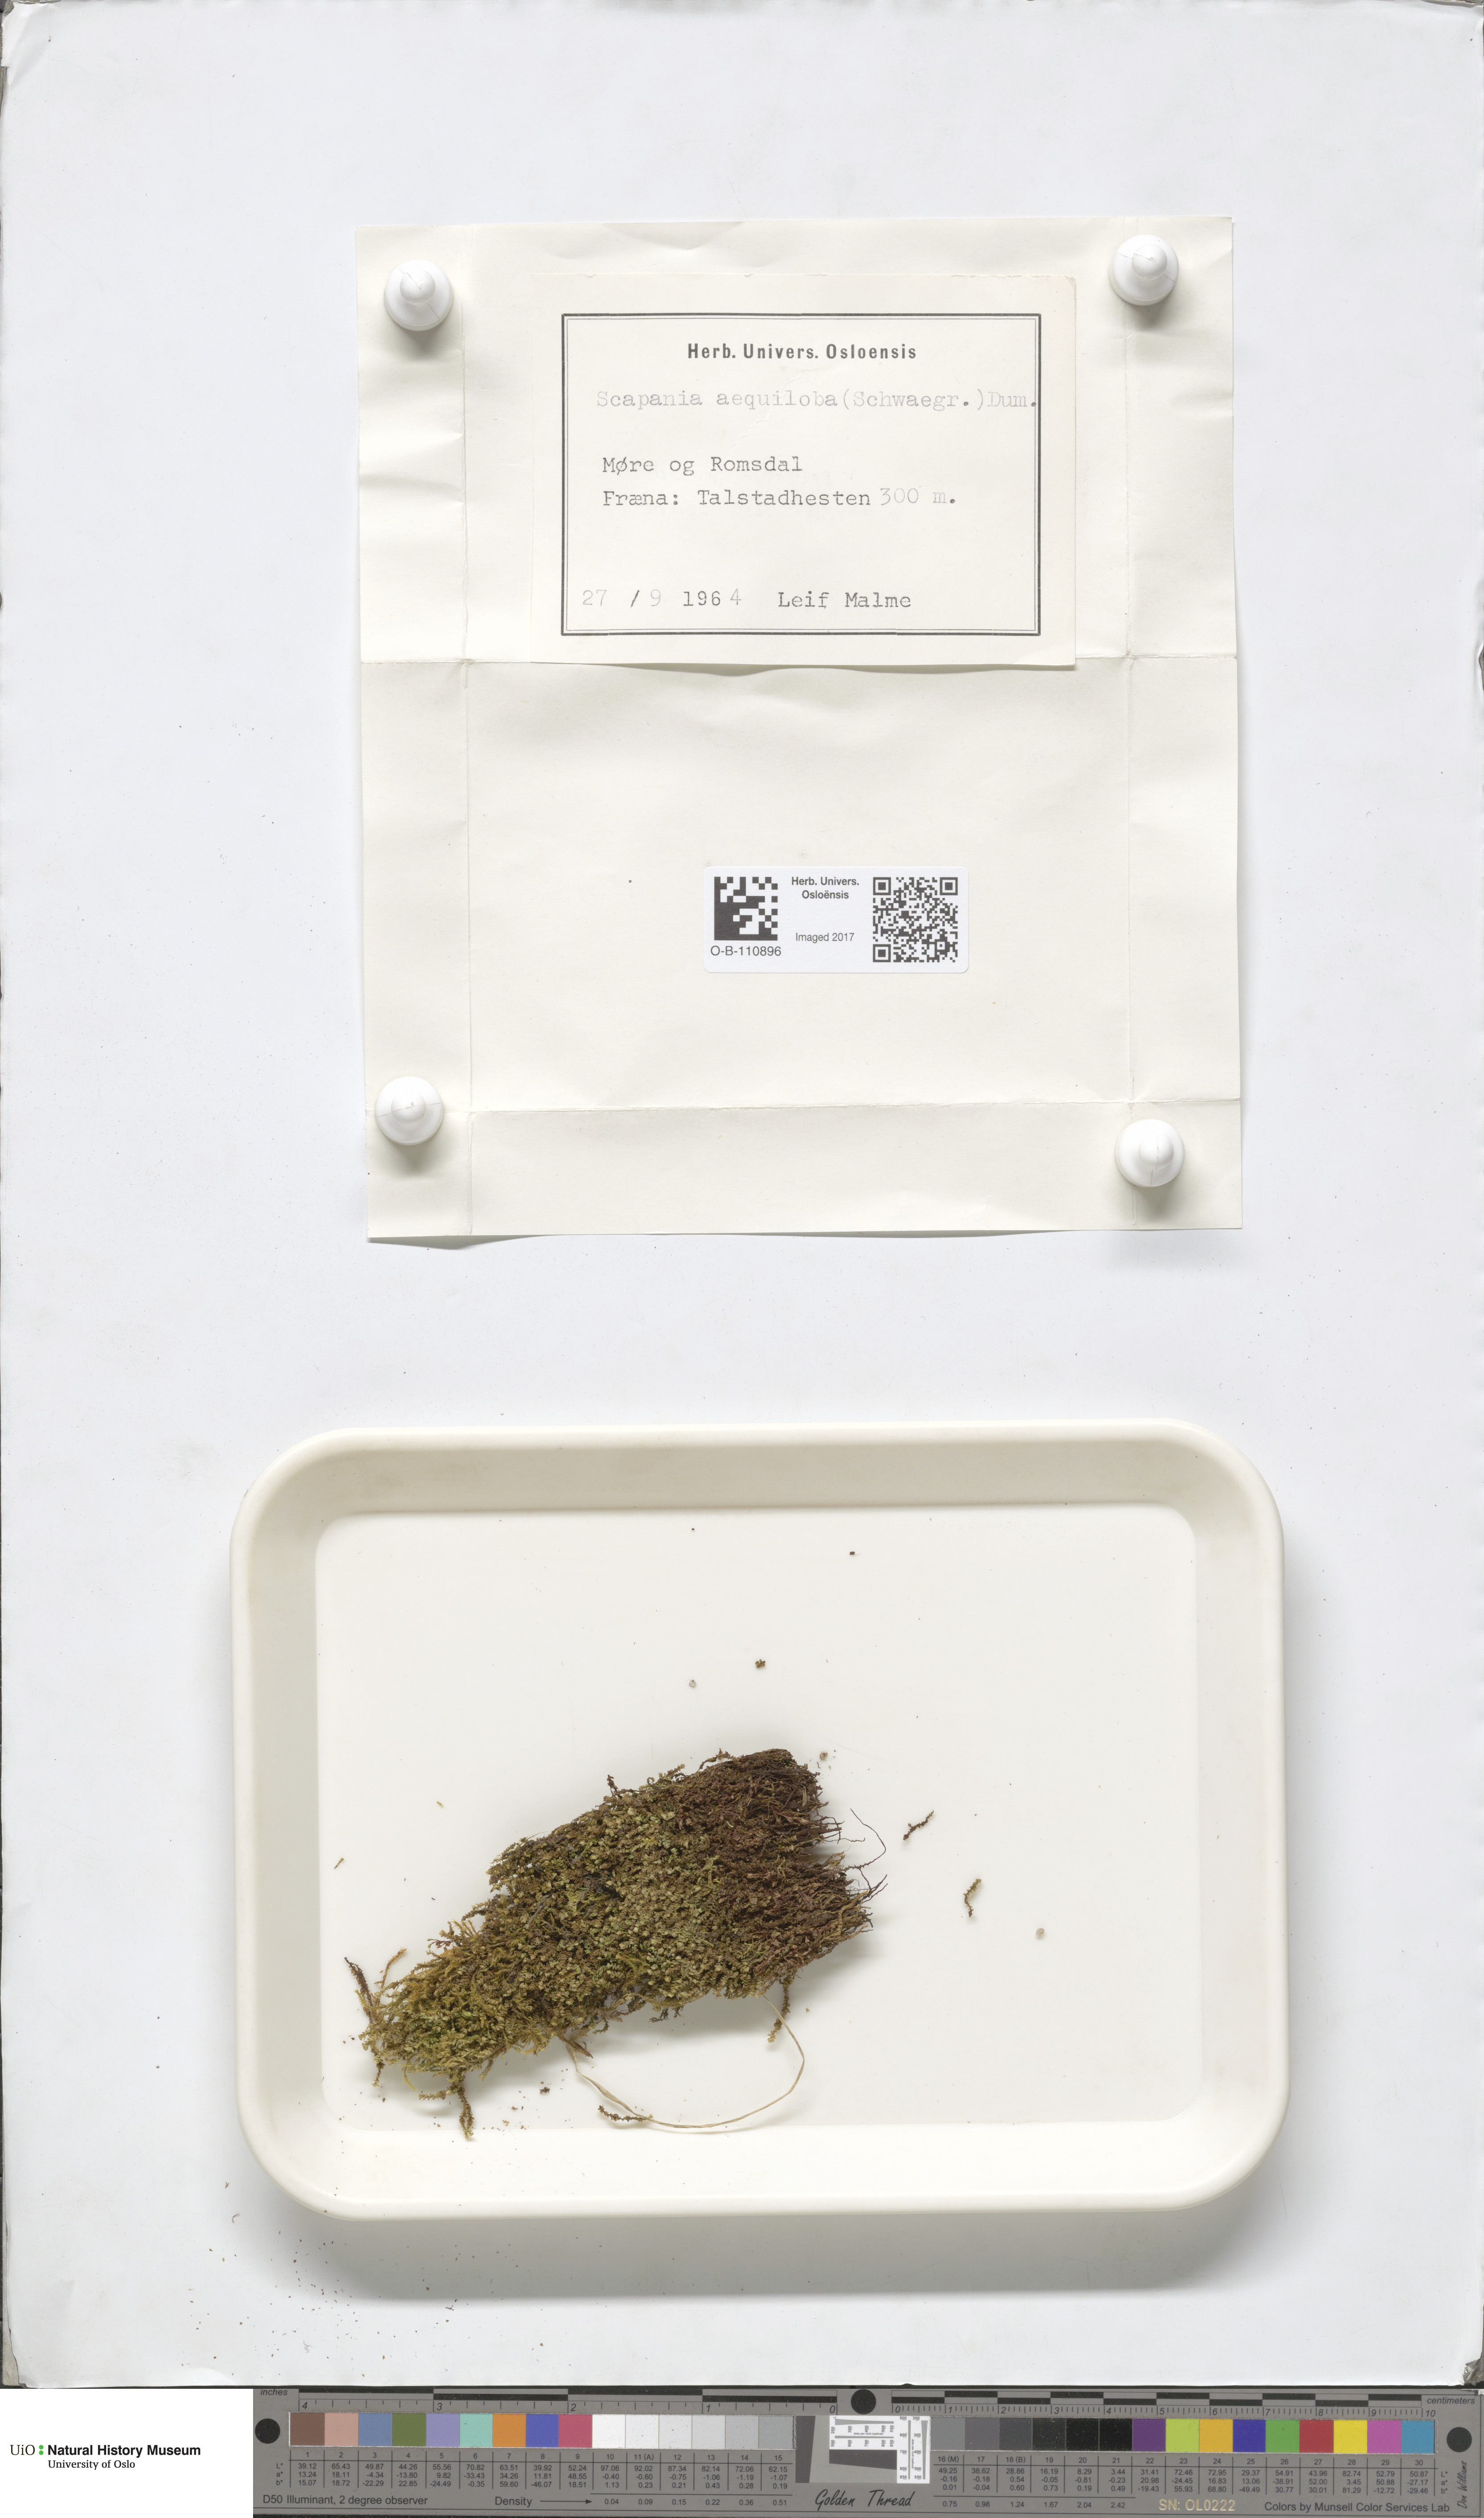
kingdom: Plantae
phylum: Marchantiophyta
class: Jungermanniopsida
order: Jungermanniales
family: Scapaniaceae
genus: Scapania
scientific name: Scapania aequiloba
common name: Lesser rough earwort
